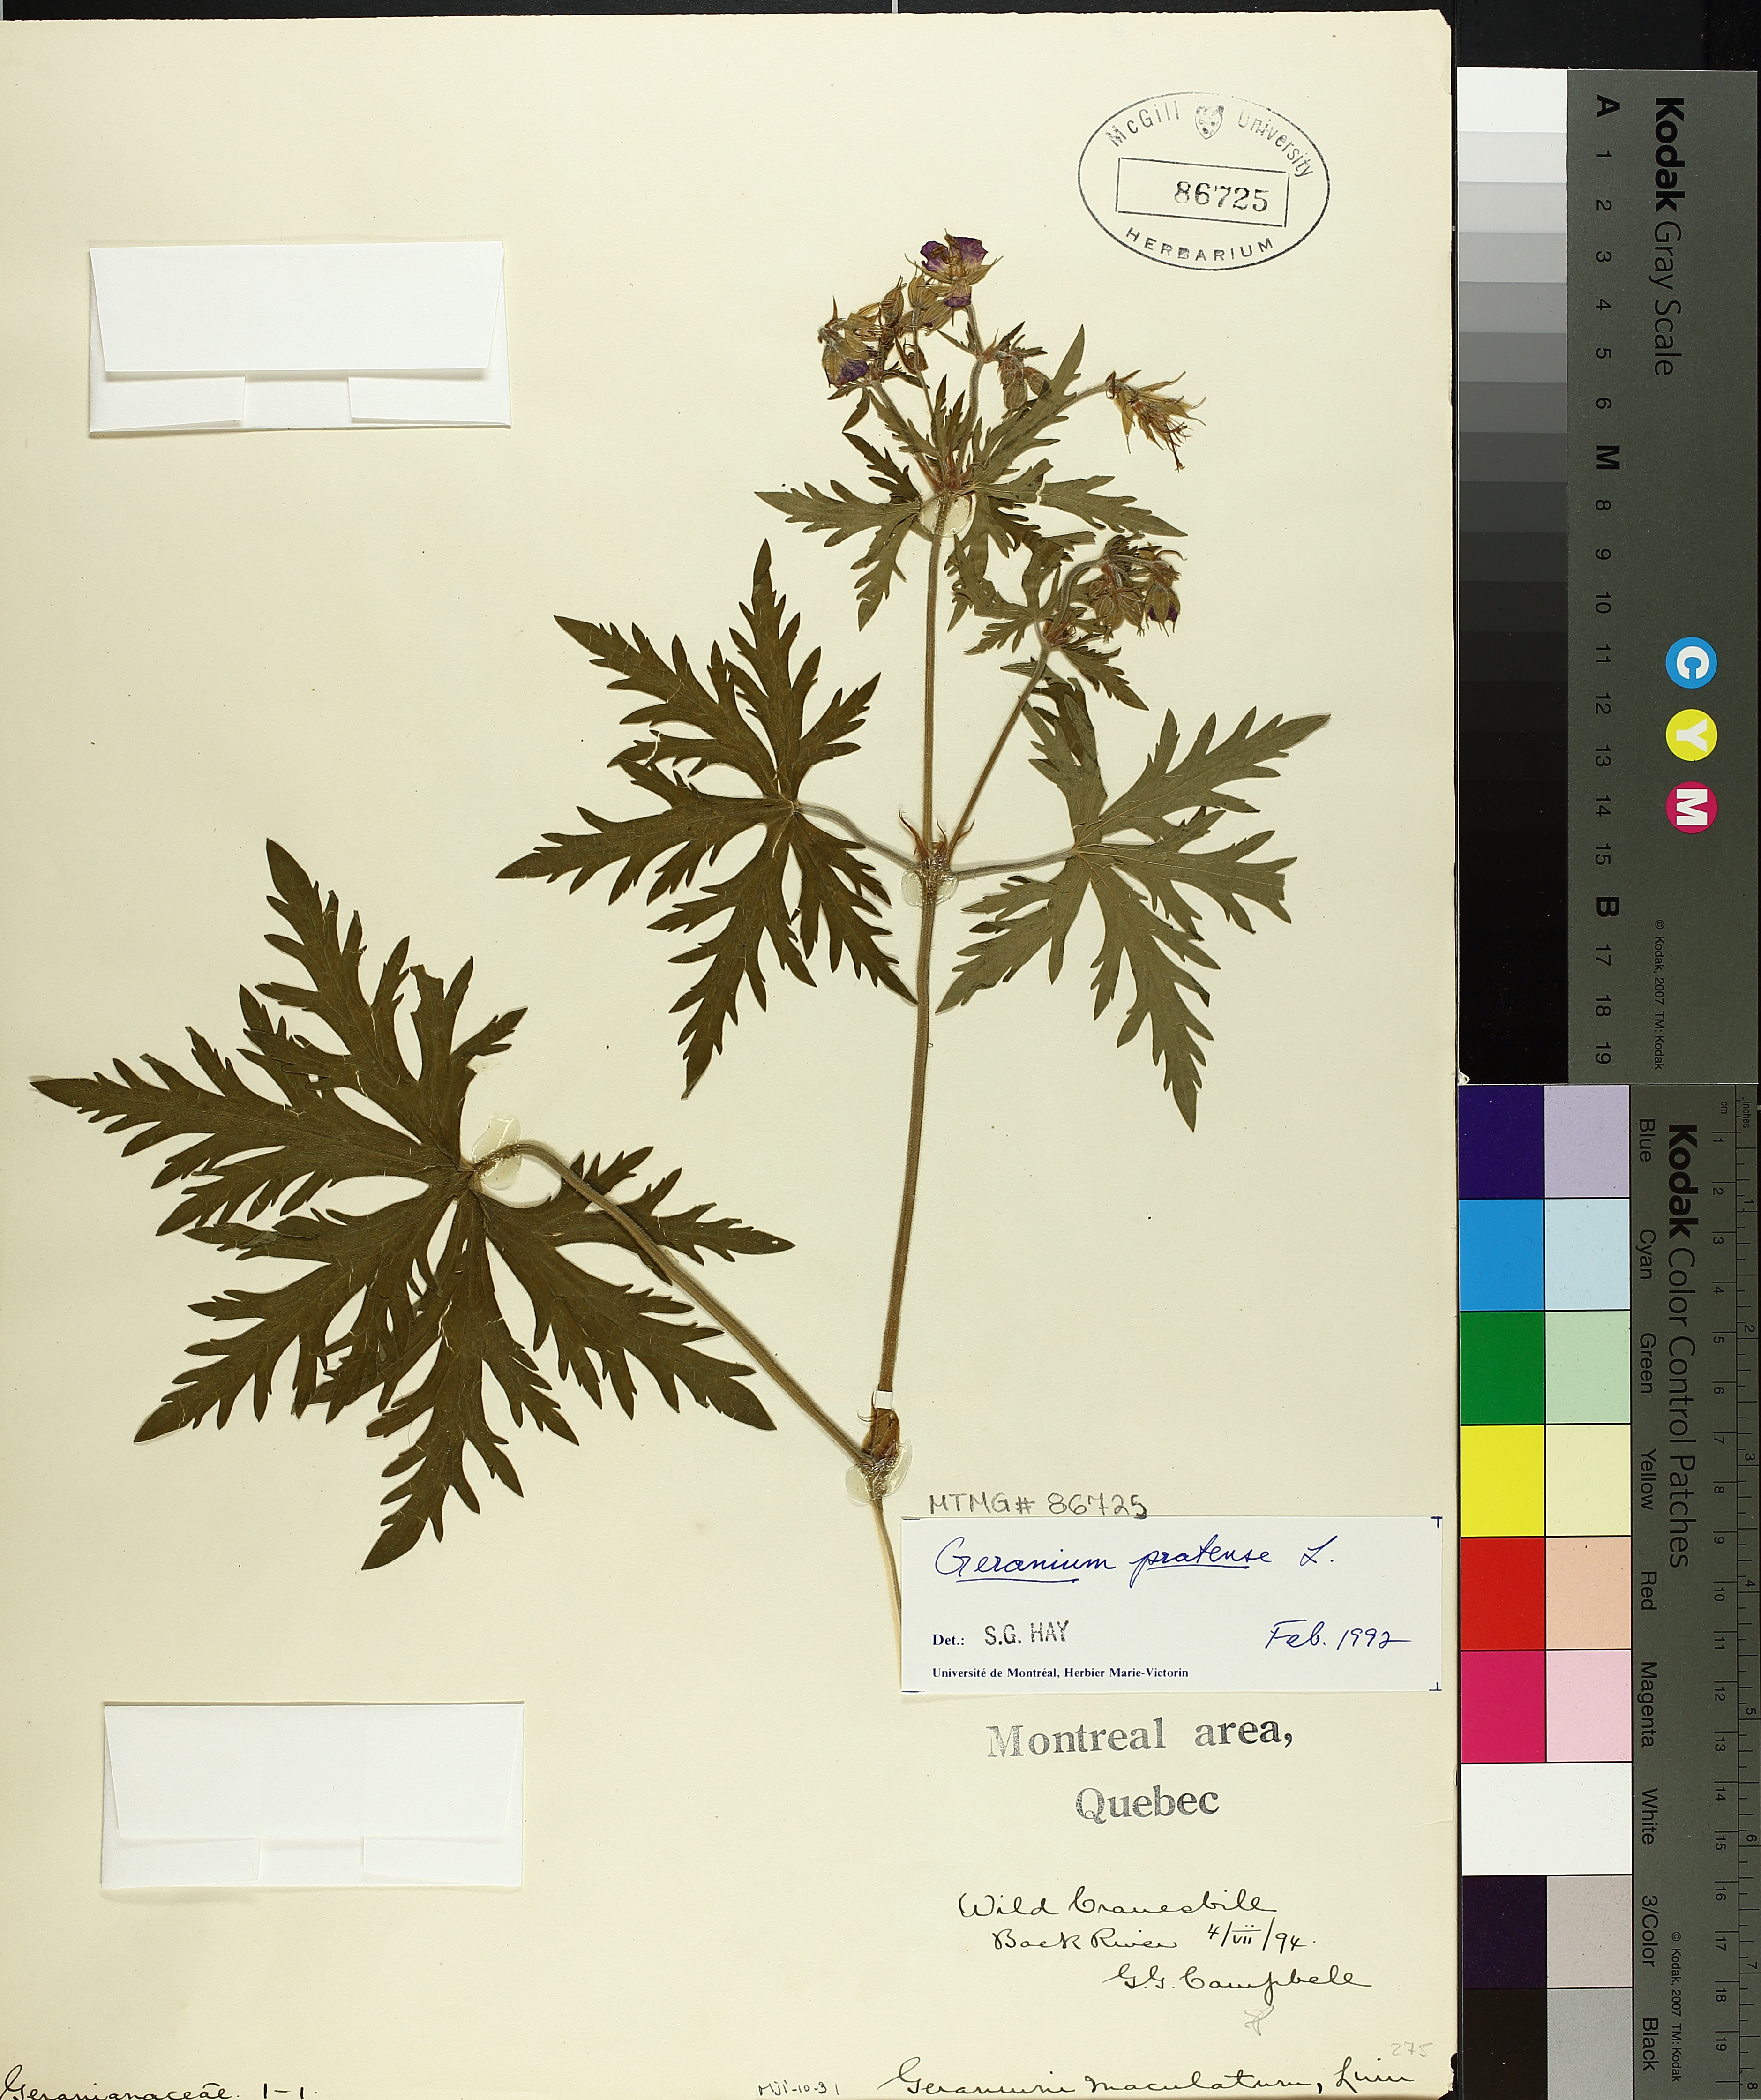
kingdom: Plantae
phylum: Tracheophyta
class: Magnoliopsida
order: Geraniales
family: Geraniaceae
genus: Geranium
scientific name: Geranium pratense
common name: Meadow crane's-bill
